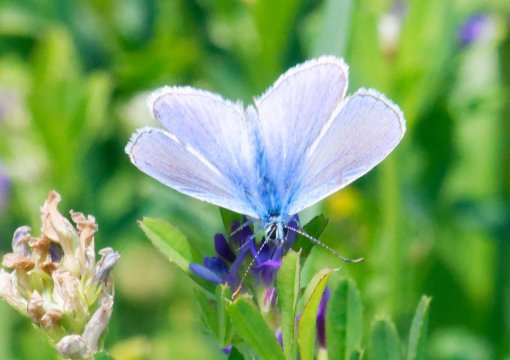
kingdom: Animalia
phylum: Arthropoda
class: Insecta
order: Lepidoptera
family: Lycaenidae
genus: Polyommatus
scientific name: Polyommatus icarus
